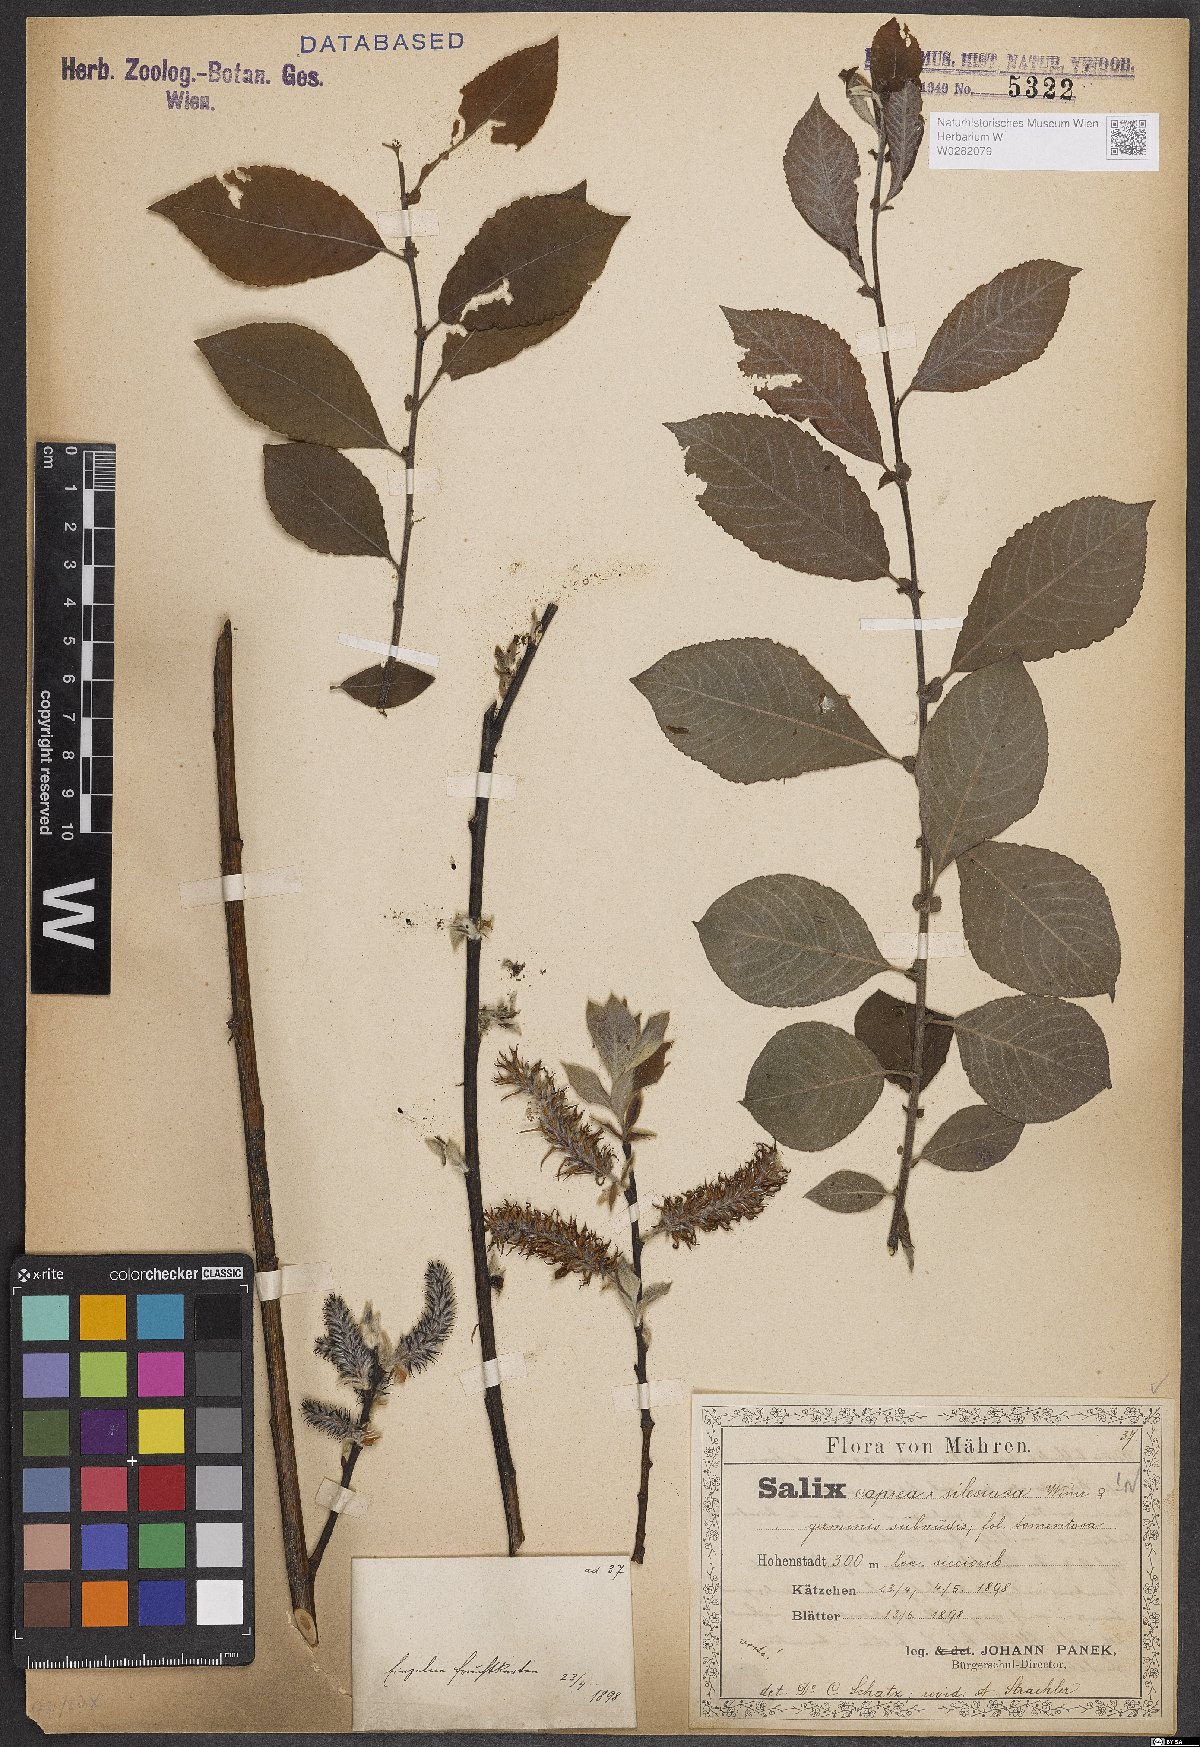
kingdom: Plantae
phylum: Tracheophyta
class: Magnoliopsida
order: Malpighiales
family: Salicaceae
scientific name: Salicaceae
